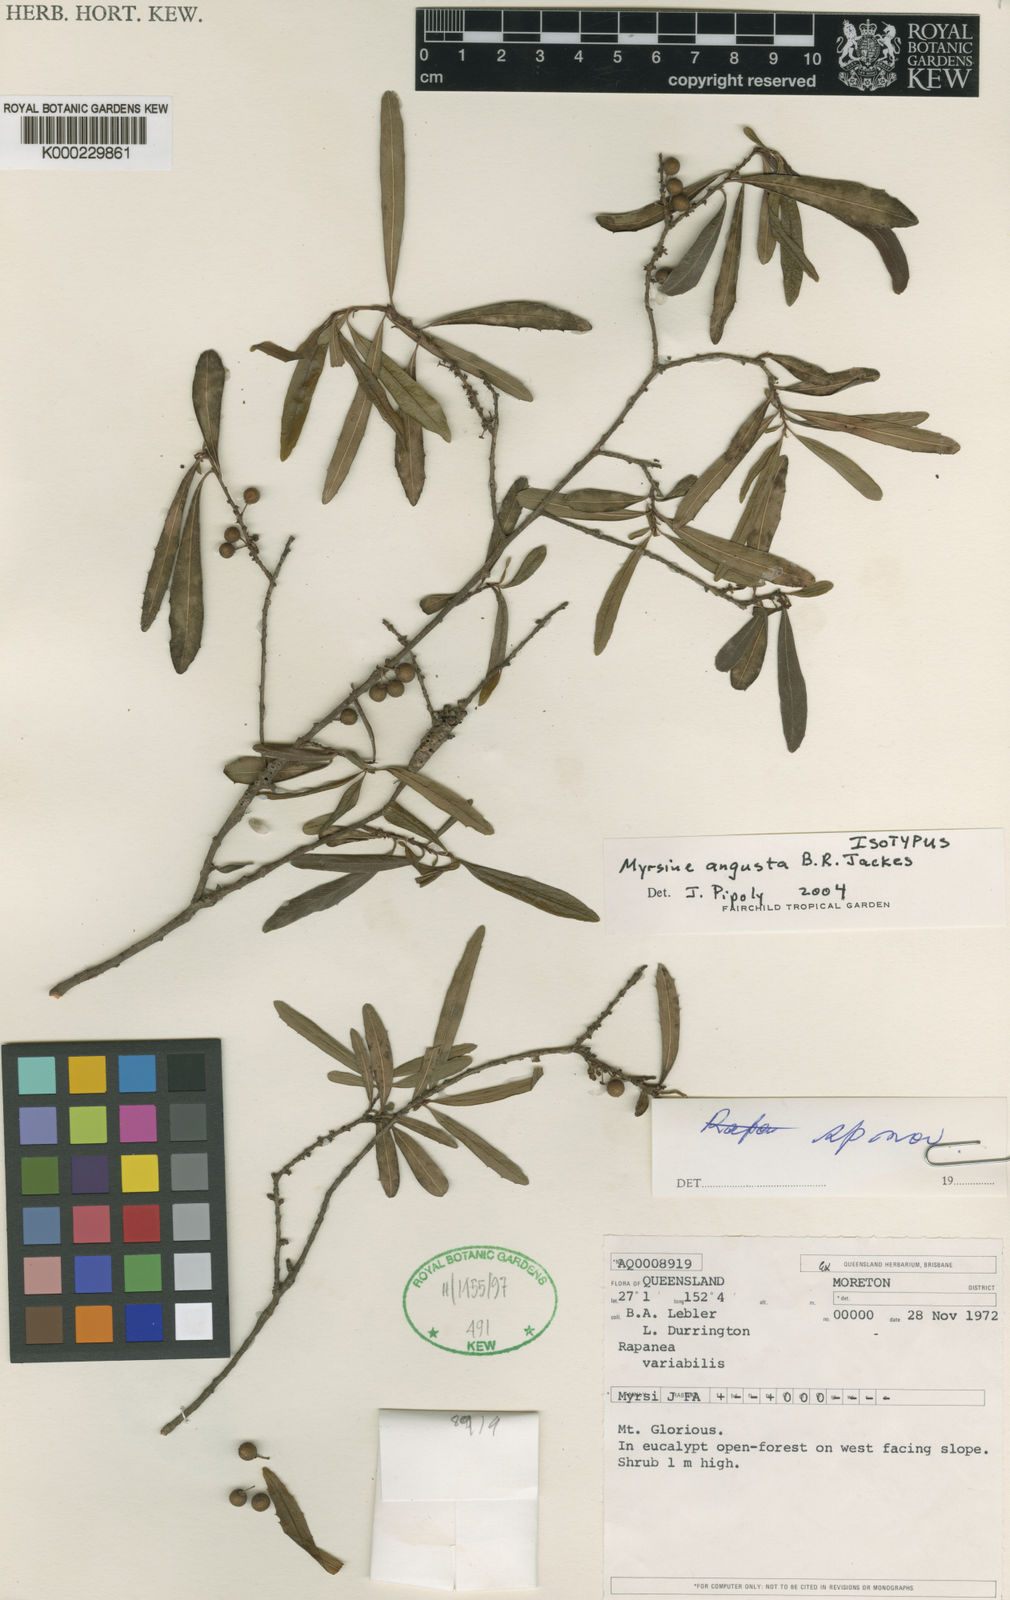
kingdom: Plantae
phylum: Tracheophyta
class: Magnoliopsida
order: Ericales
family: Primulaceae
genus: Myrsine
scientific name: Myrsine angusta
